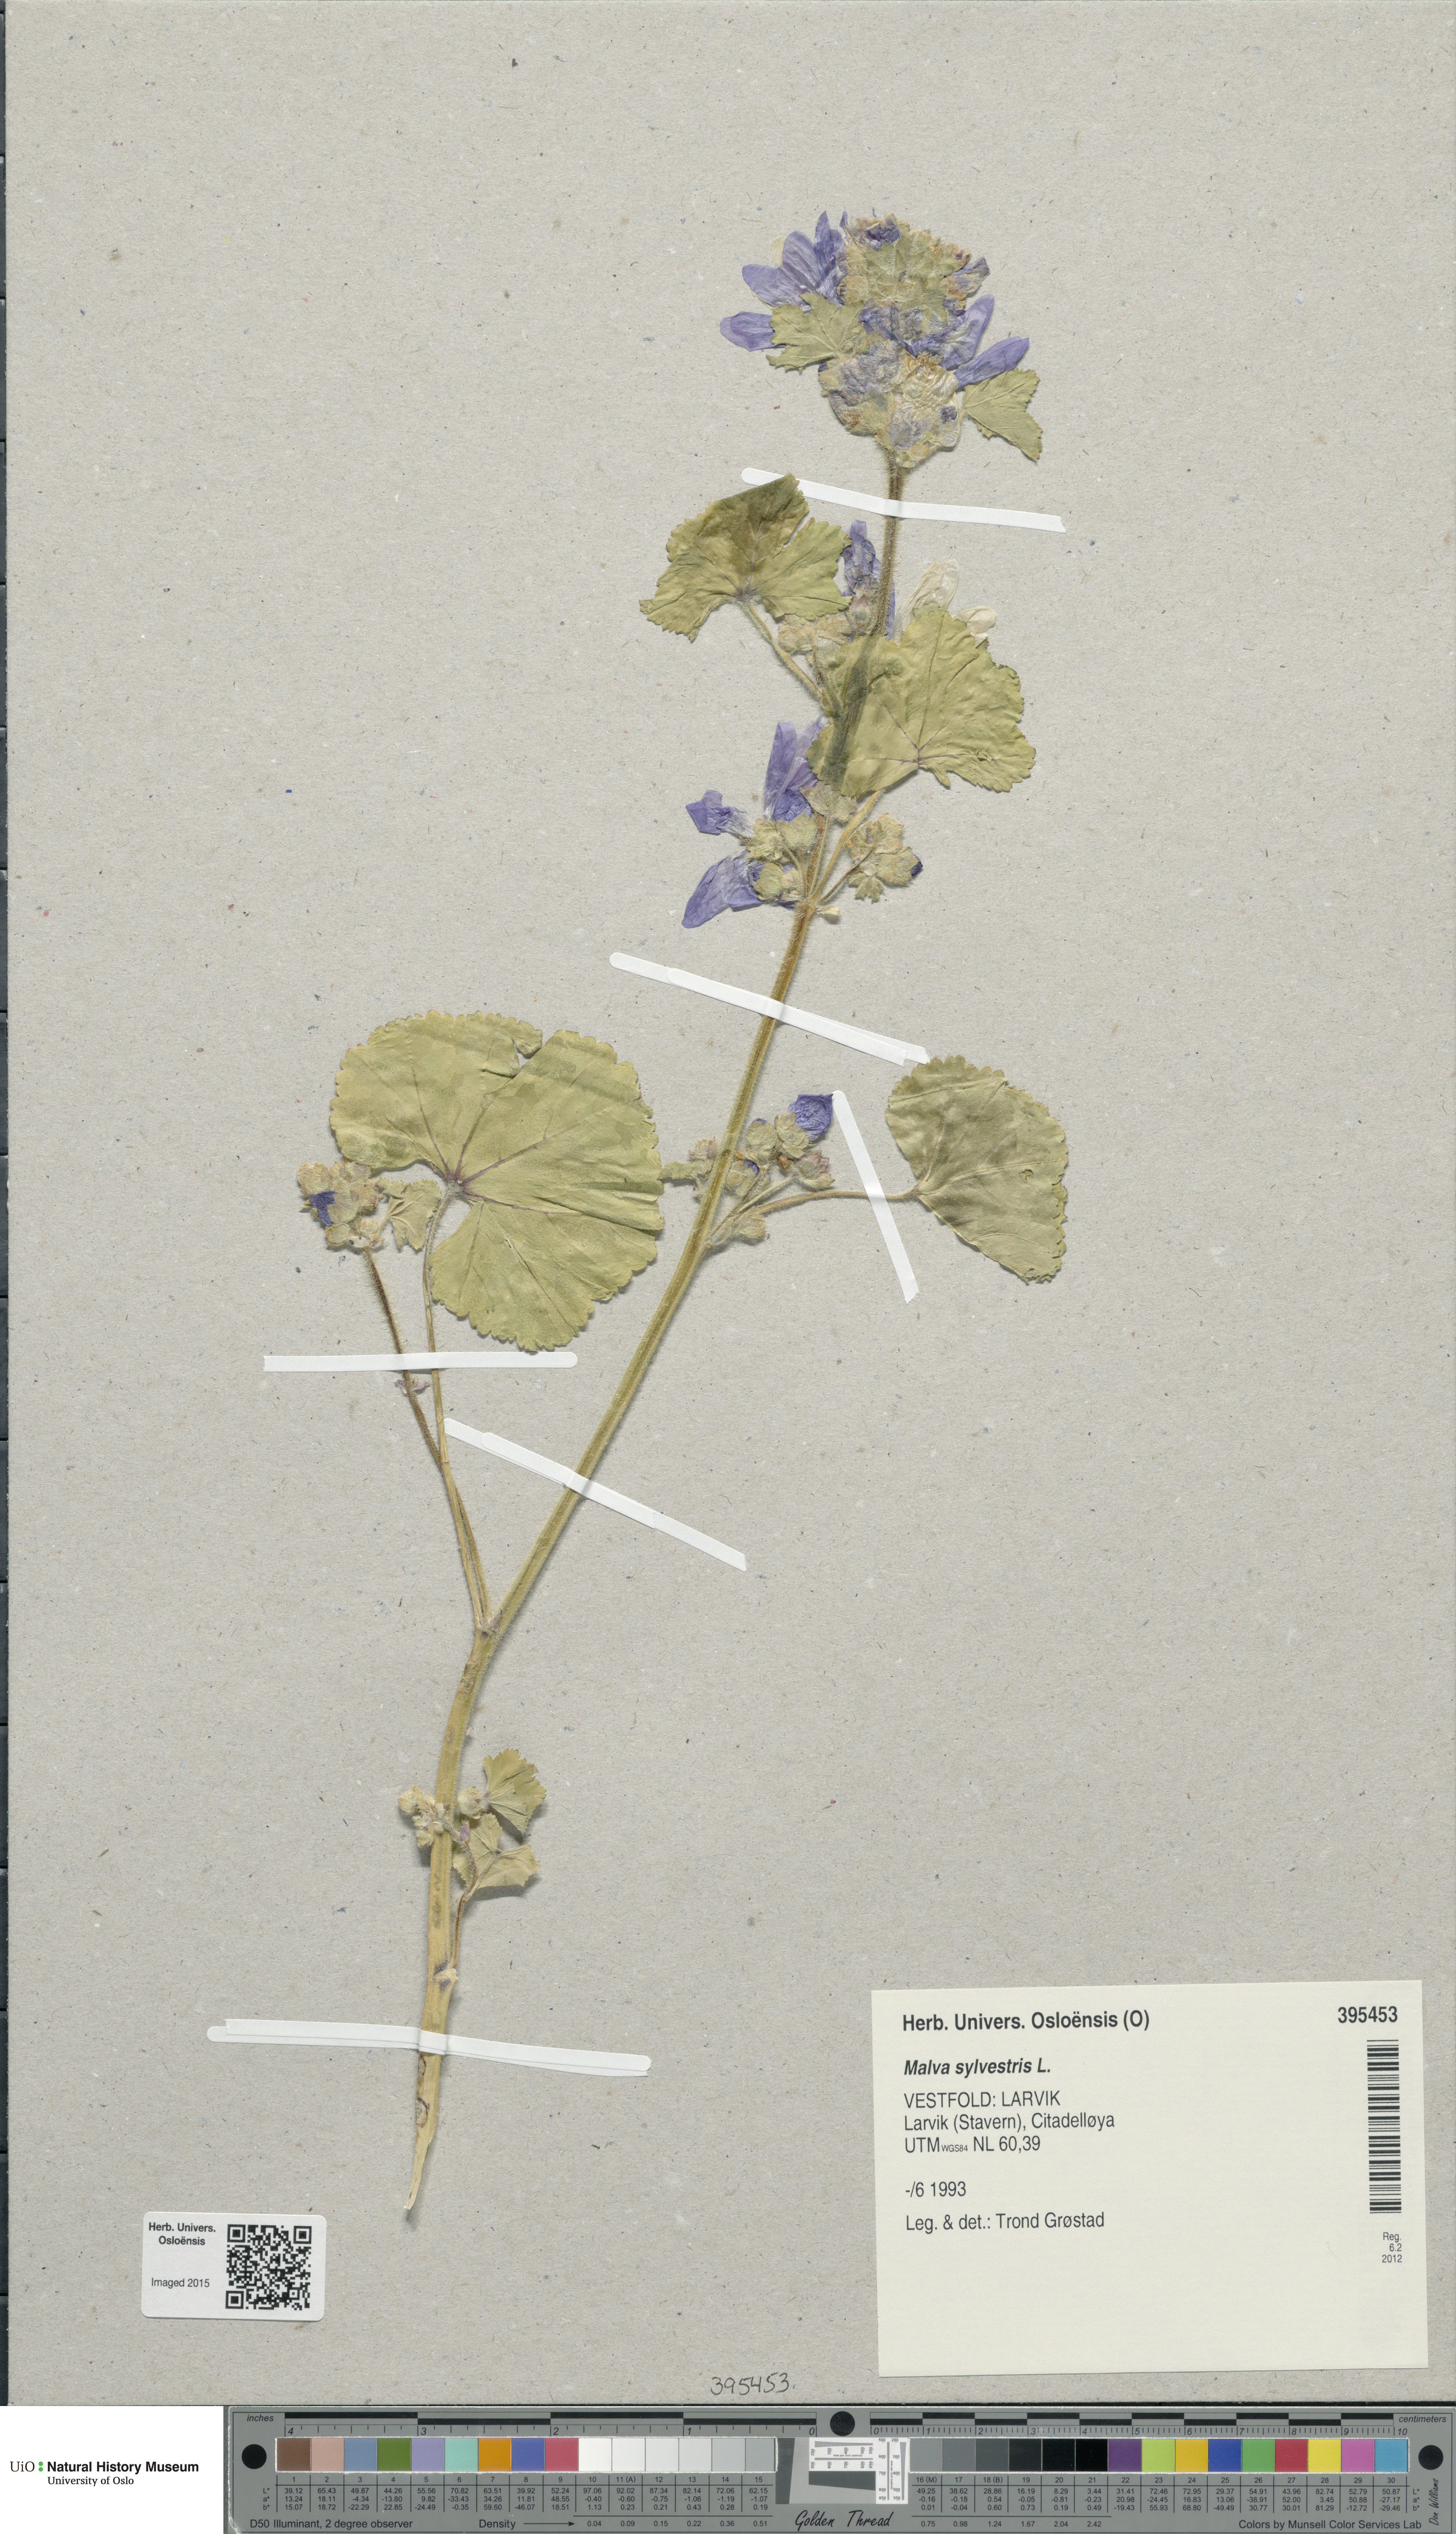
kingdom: Plantae
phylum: Tracheophyta
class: Magnoliopsida
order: Malvales
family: Malvaceae
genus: Malva
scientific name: Malva sylvestris
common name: Common mallow
